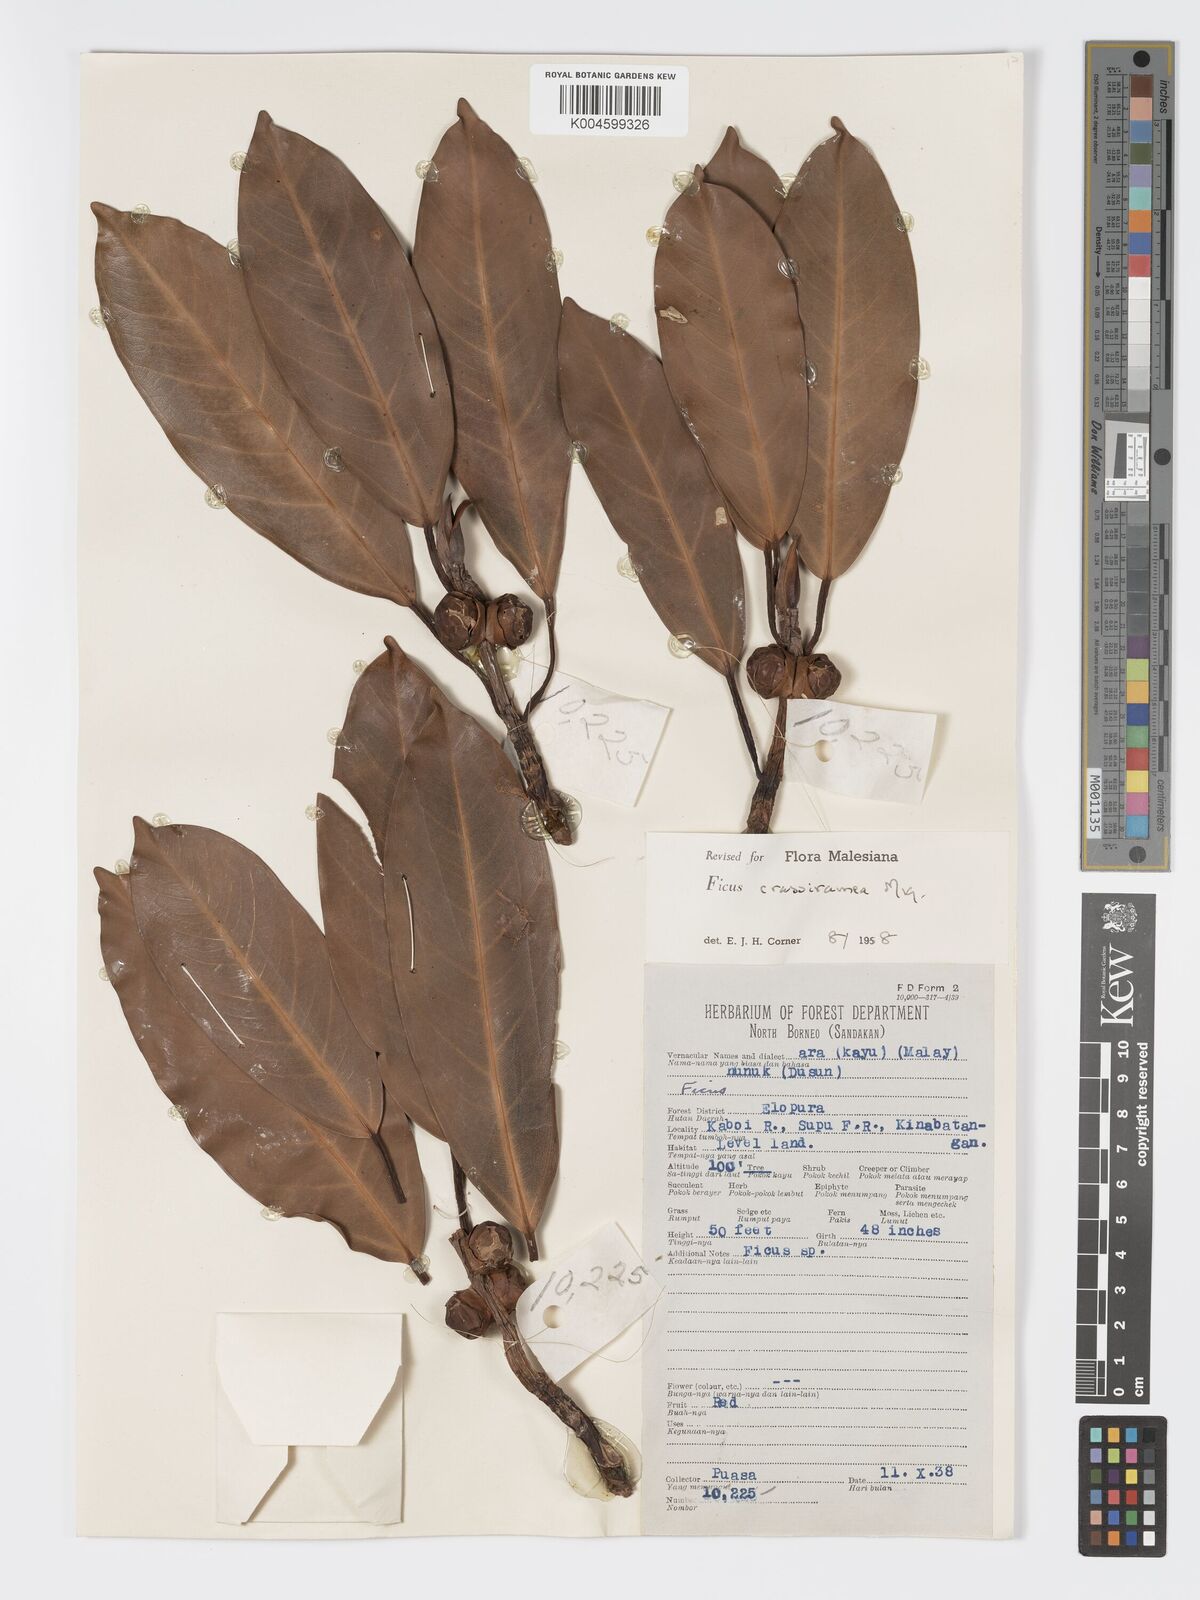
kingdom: Plantae
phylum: Tracheophyta
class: Magnoliopsida
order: Rosales
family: Moraceae
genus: Ficus
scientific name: Ficus crassiramea
